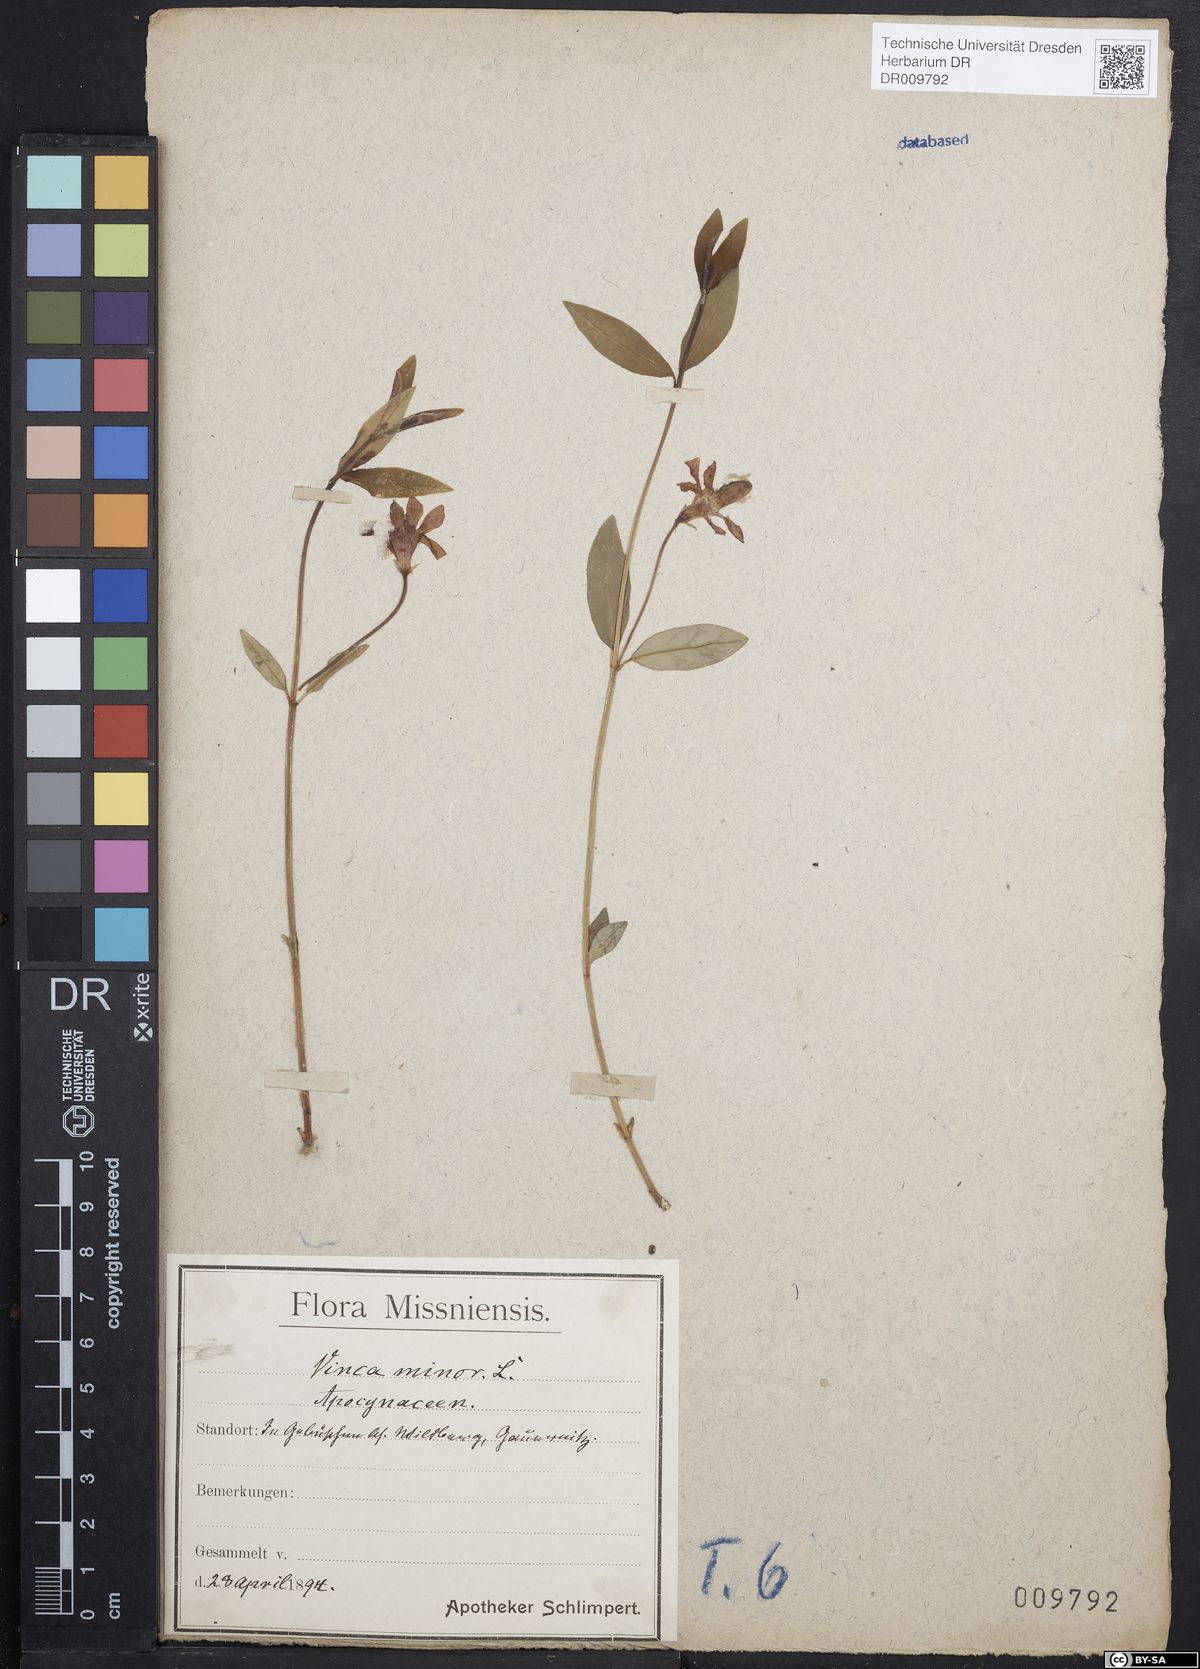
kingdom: Plantae
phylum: Tracheophyta
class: Magnoliopsida
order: Gentianales
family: Apocynaceae
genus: Vinca
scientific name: Vinca minor
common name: Lesser periwinkle
